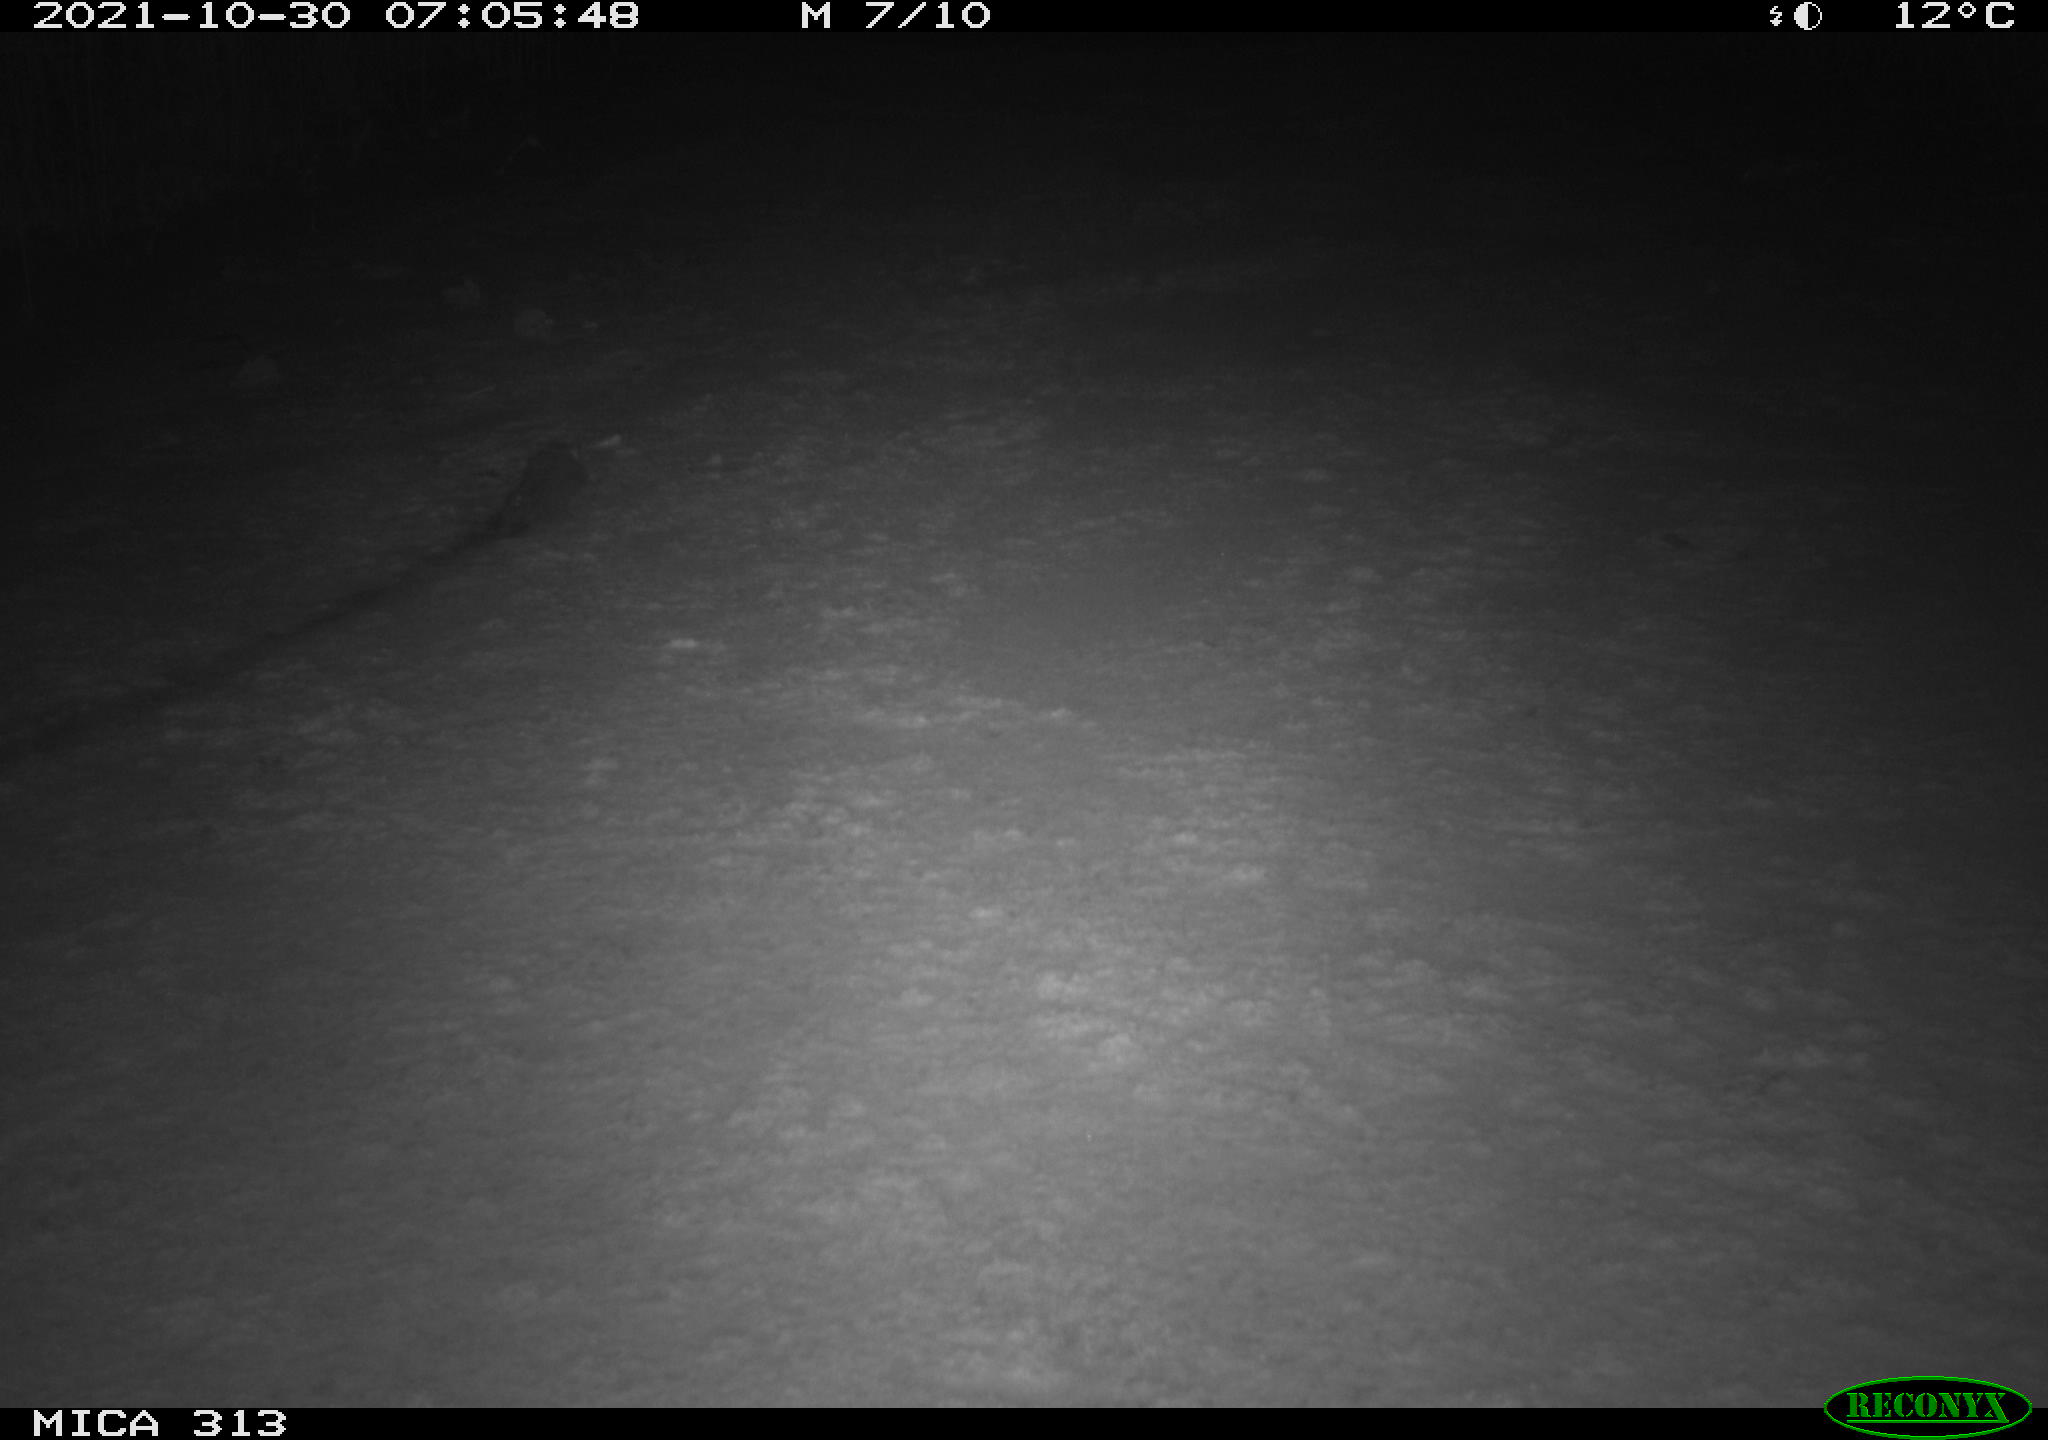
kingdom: Animalia
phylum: Chordata
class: Mammalia
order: Rodentia
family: Muridae
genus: Rattus
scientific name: Rattus norvegicus
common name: Brown rat
